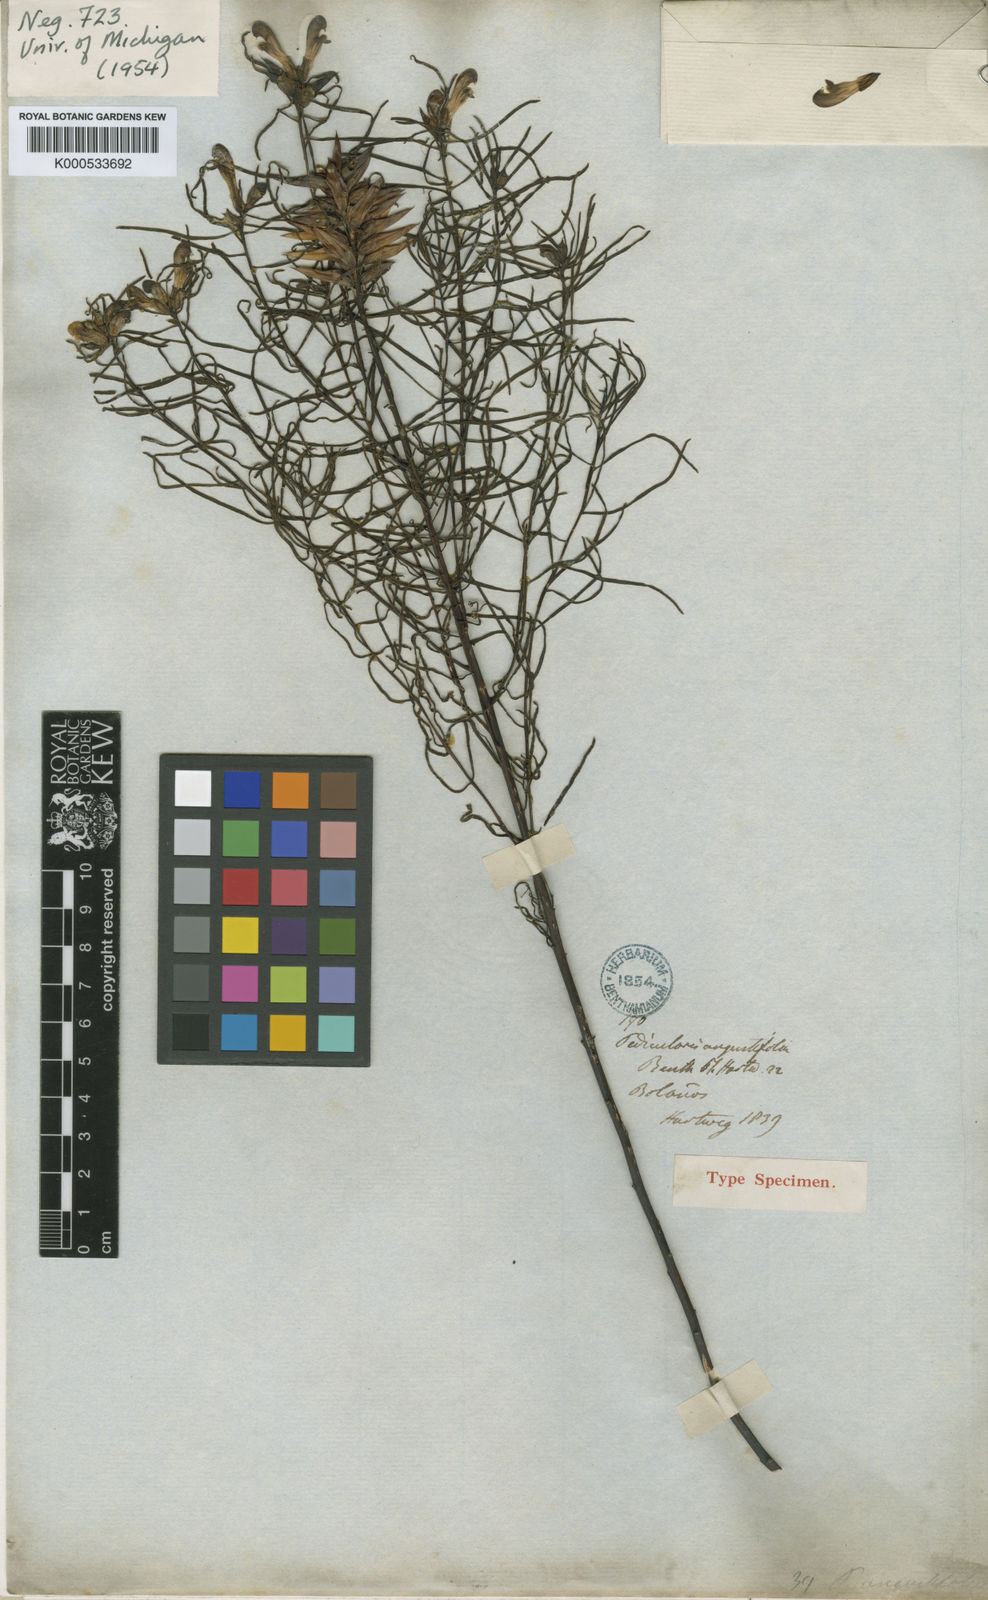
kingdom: Plantae
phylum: Tracheophyta
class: Magnoliopsida
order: Lamiales
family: Orobanchaceae
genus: Pedicularis
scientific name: Pedicularis angustifolia
